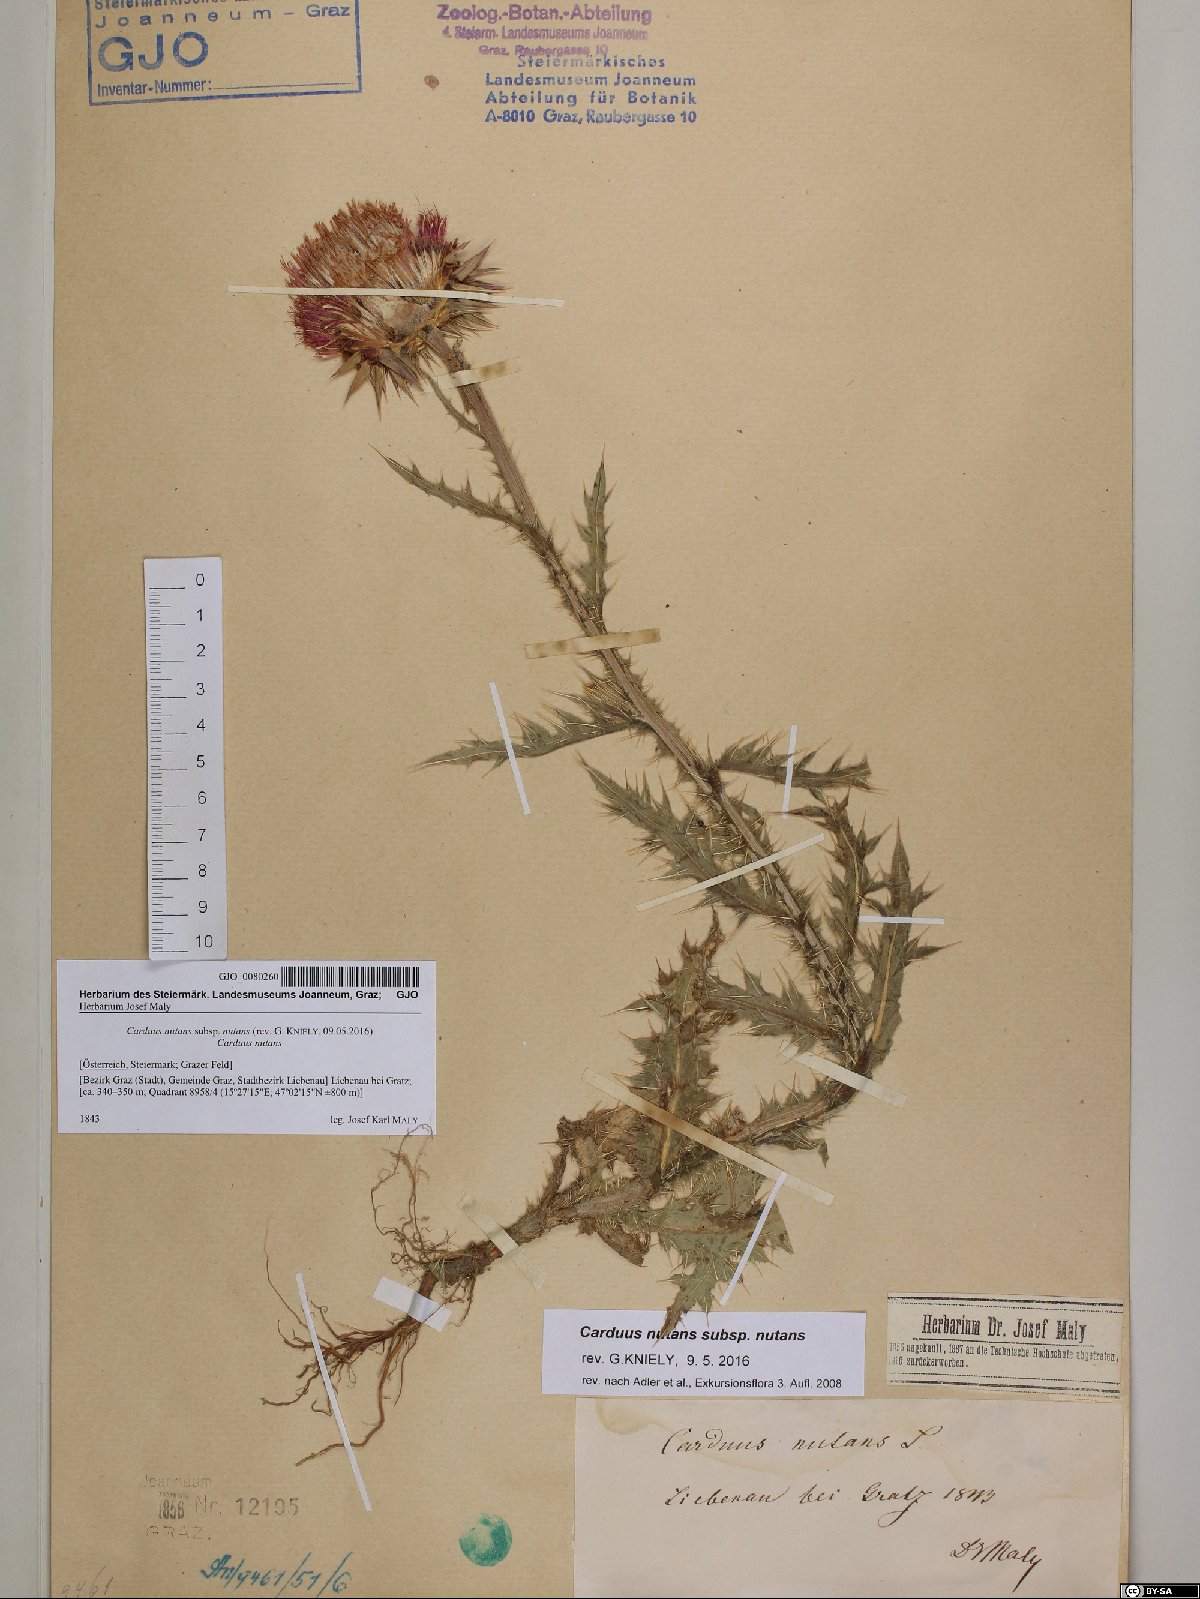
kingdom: Plantae
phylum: Tracheophyta
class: Magnoliopsida
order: Asterales
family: Asteraceae
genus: Carduus
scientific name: Carduus nutans
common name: Musk thistle
